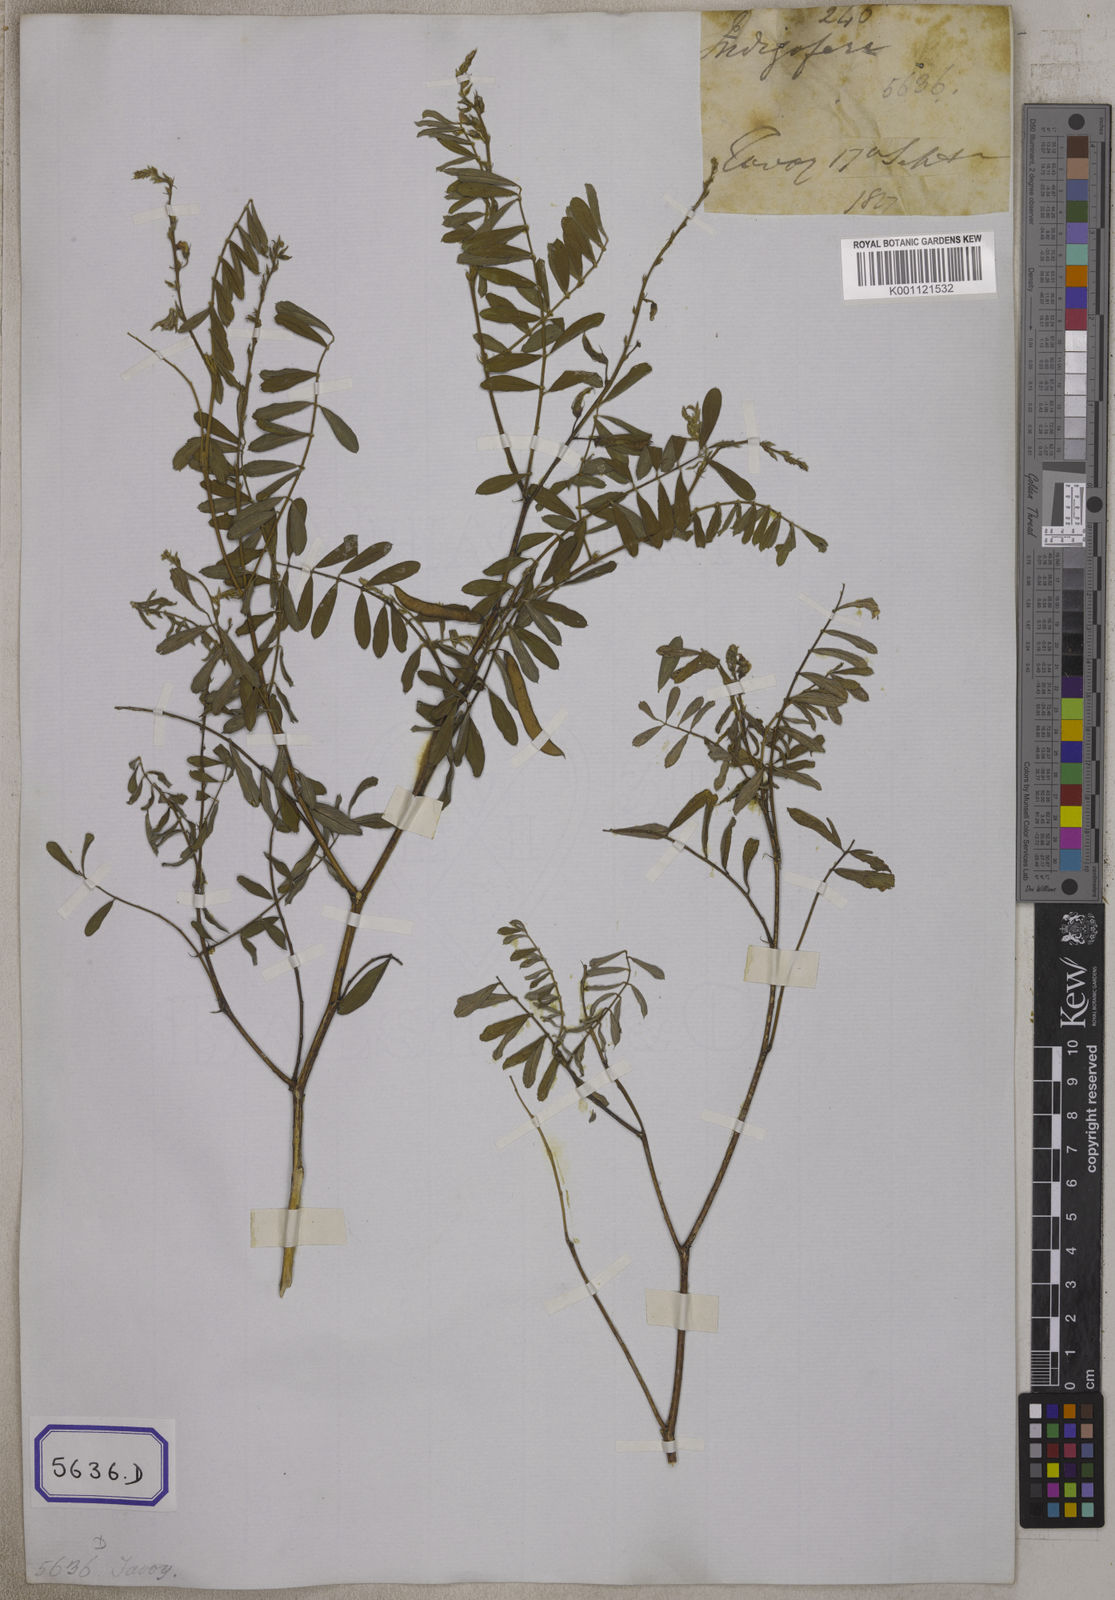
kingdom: Plantae
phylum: Tracheophyta
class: Magnoliopsida
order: Fabales
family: Fabaceae
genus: Tephrosia
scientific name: Tephrosia
